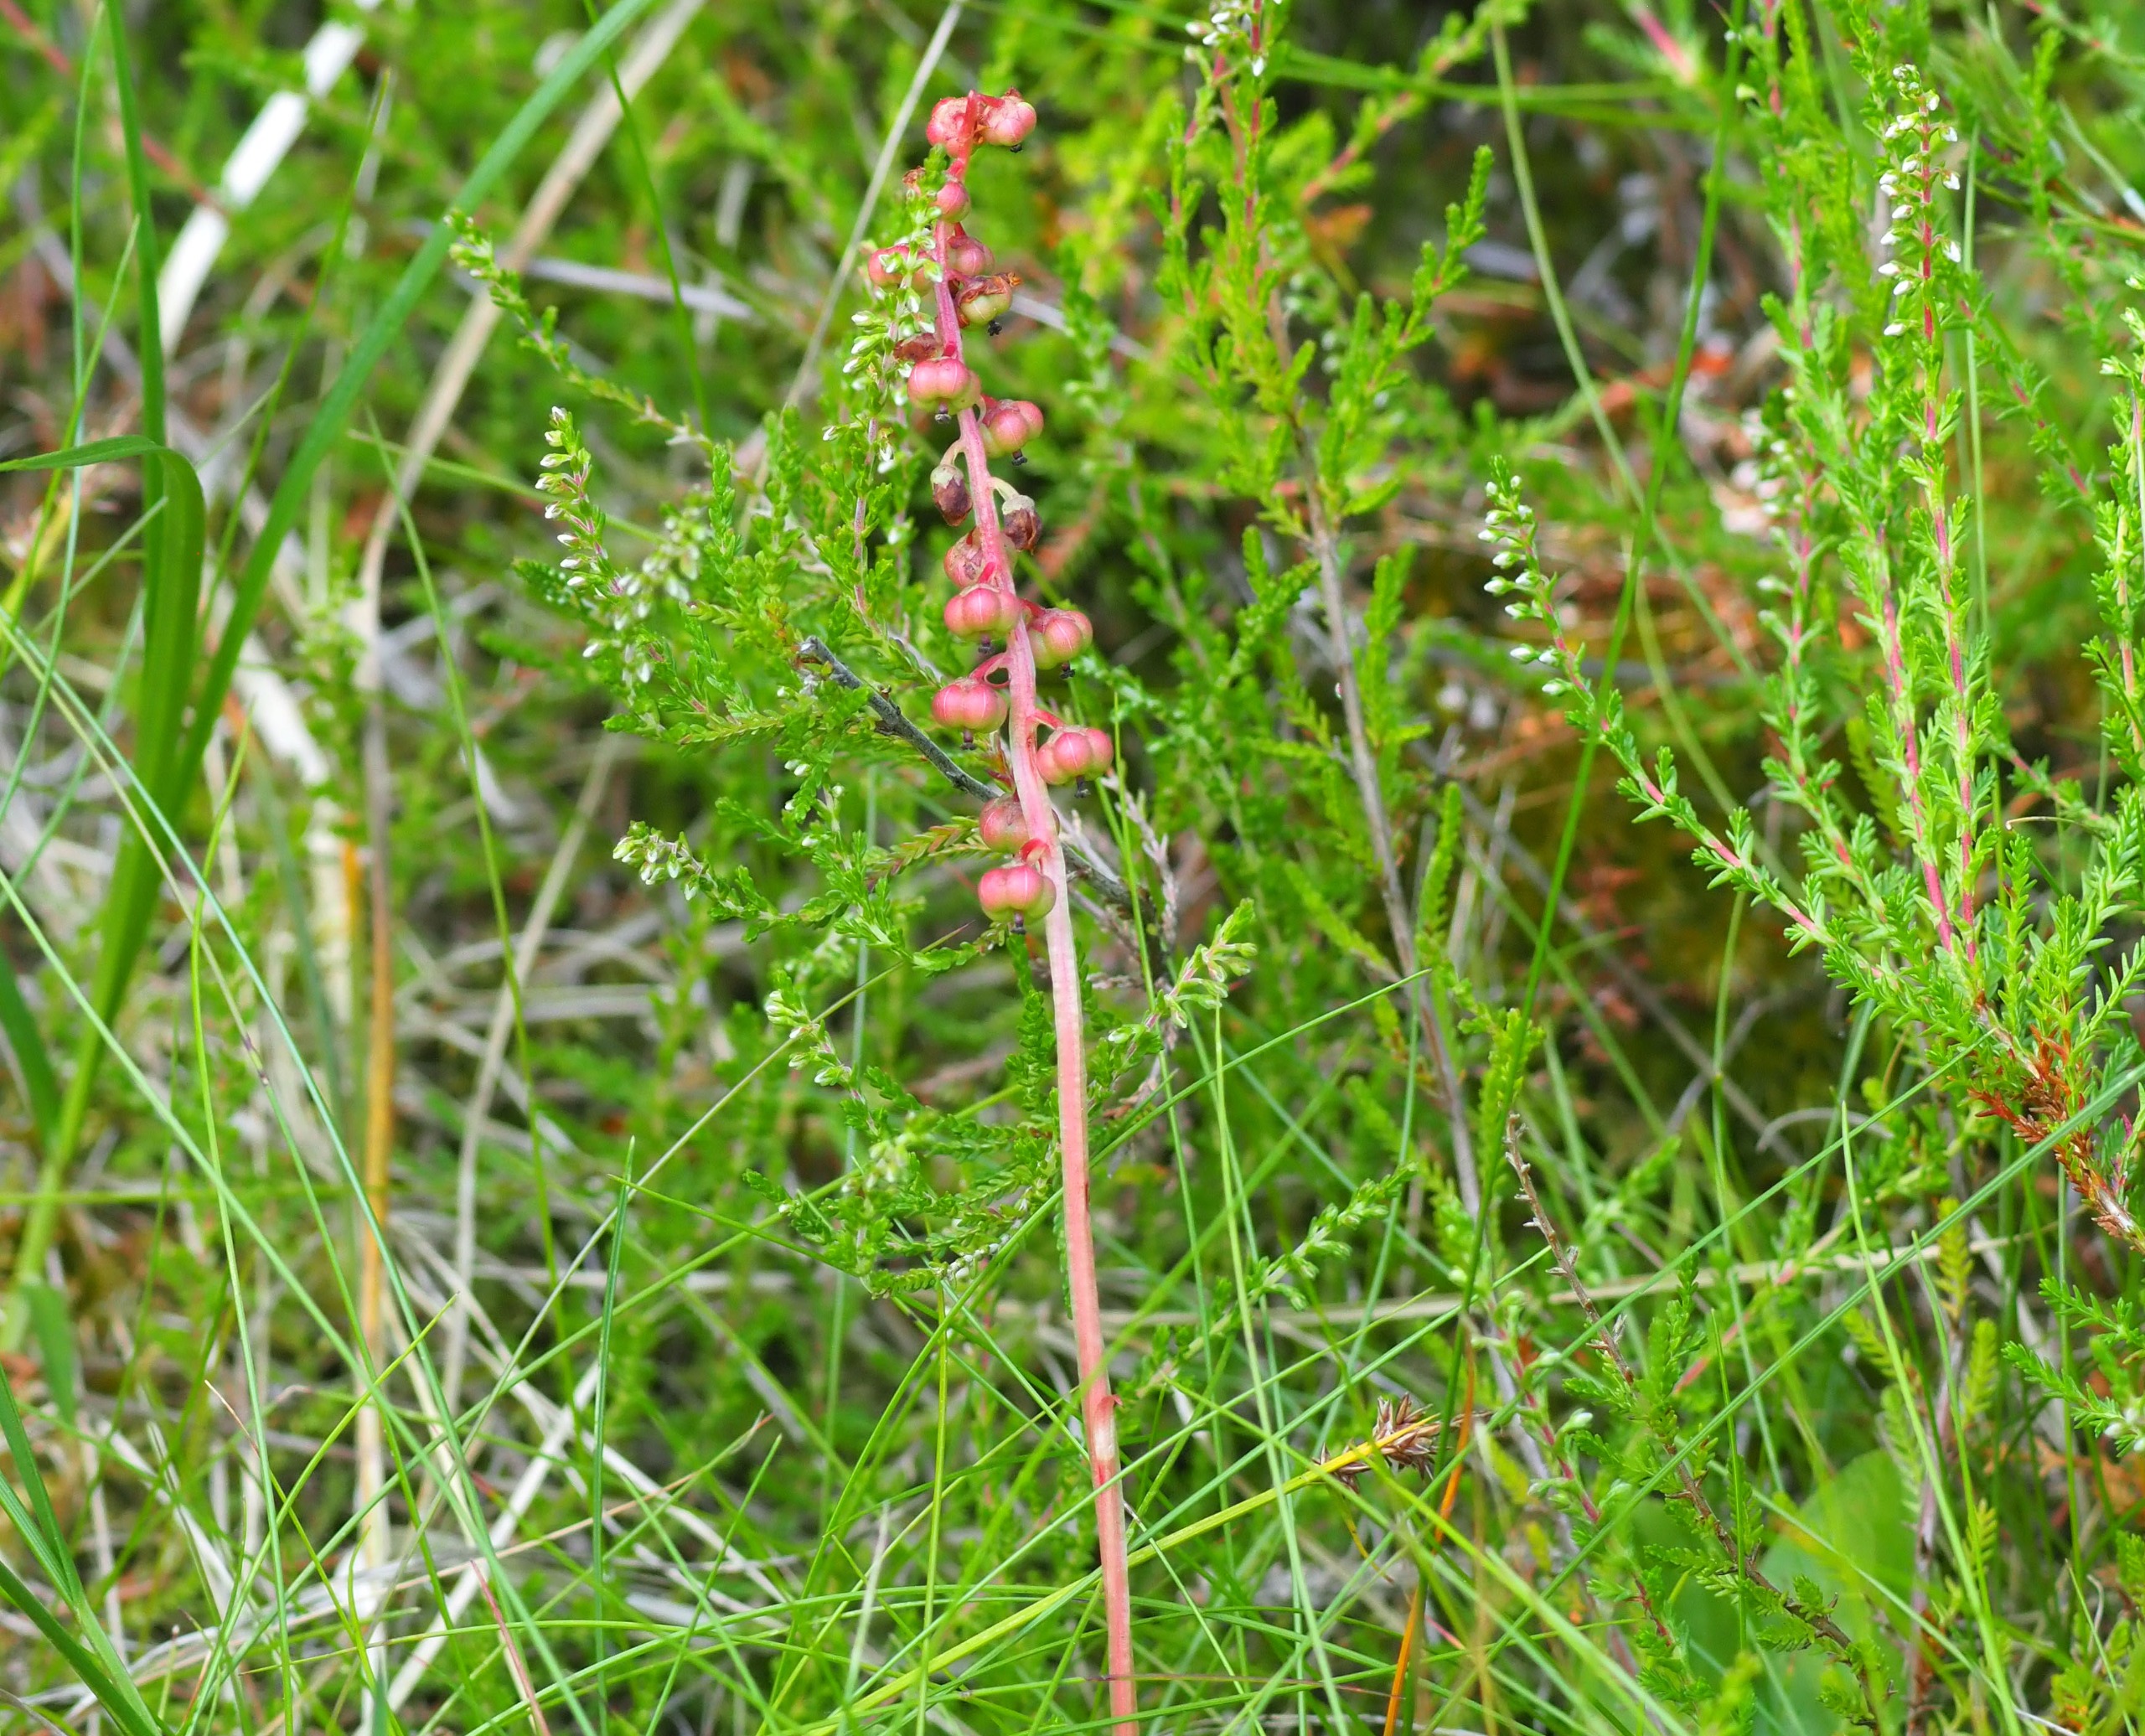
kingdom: Plantae
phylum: Tracheophyta
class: Magnoliopsida
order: Ericales
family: Ericaceae
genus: Pyrola
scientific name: Pyrola minor
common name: Liden vintergrøn
